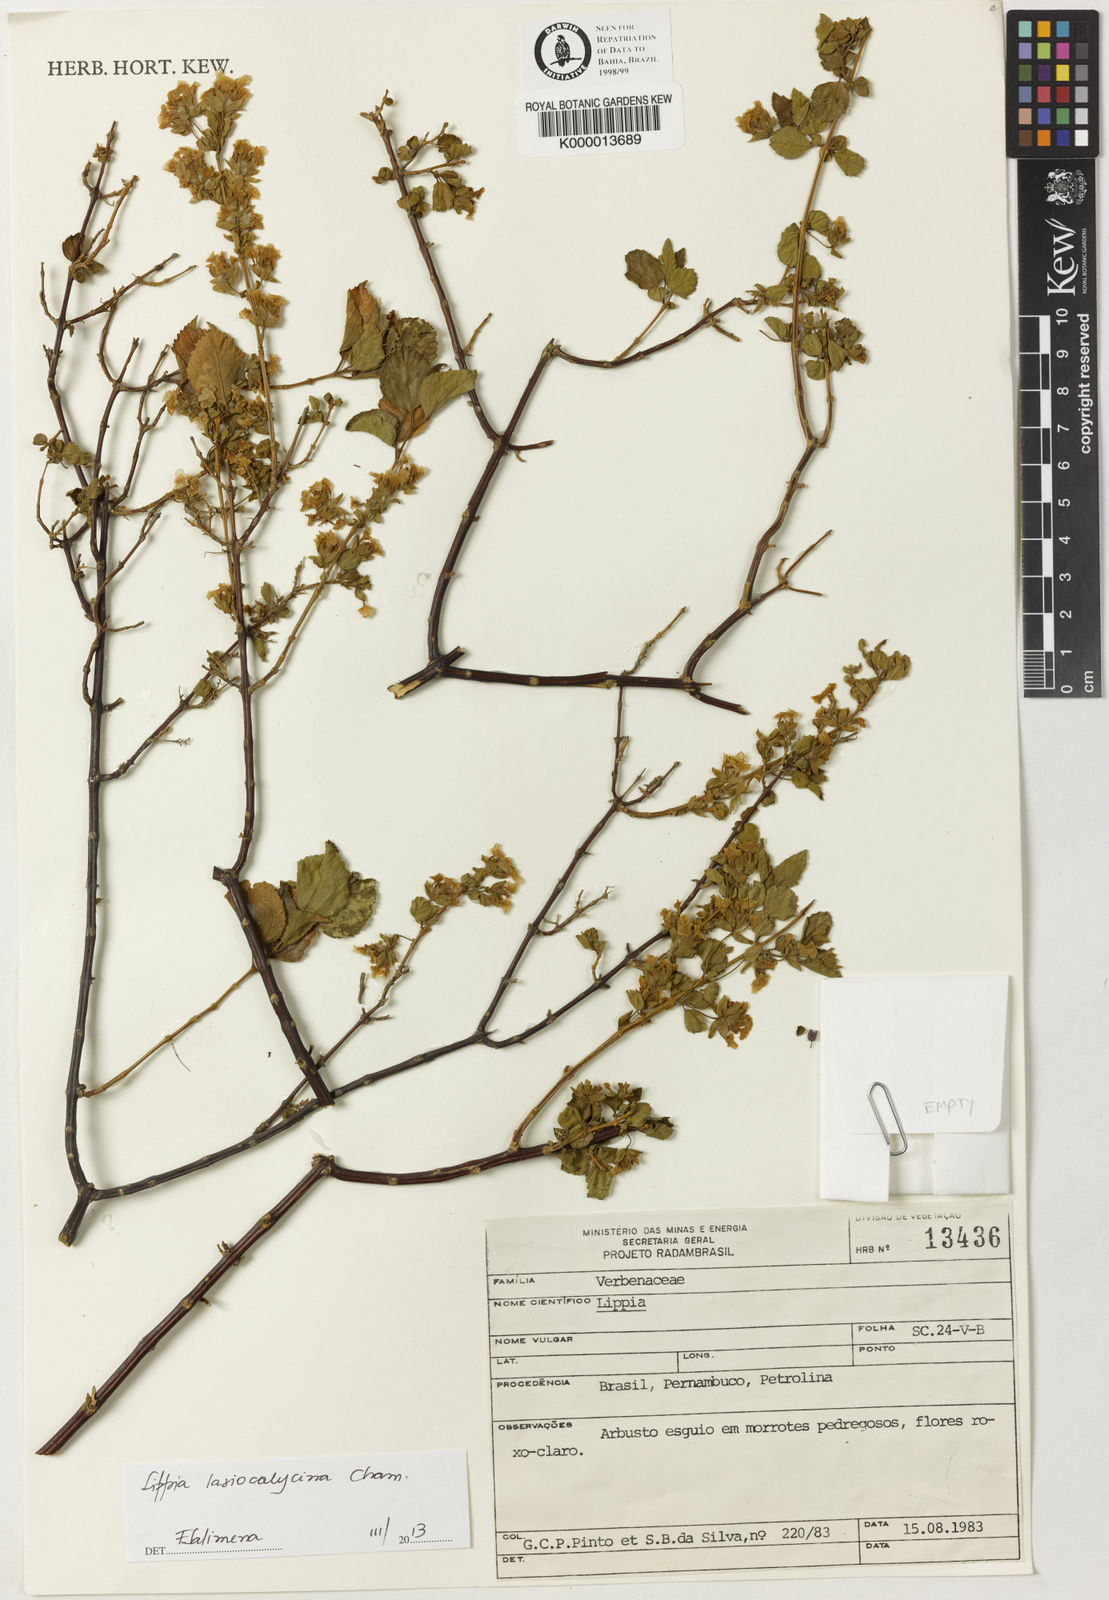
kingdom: Plantae
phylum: Tracheophyta
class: Magnoliopsida
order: Lamiales
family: Verbenaceae
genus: Lippia
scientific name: Lippia
